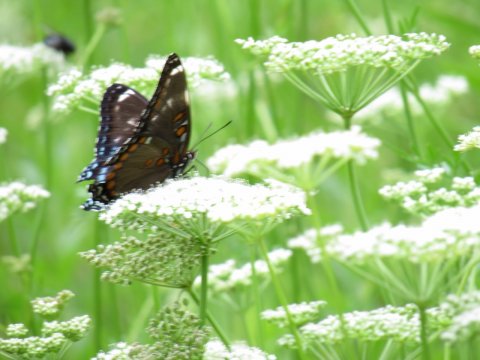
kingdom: Animalia
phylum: Arthropoda
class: Insecta
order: Lepidoptera
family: Nymphalidae
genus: Limenitis
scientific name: Limenitis arthemis
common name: Red-spotted Admiral
